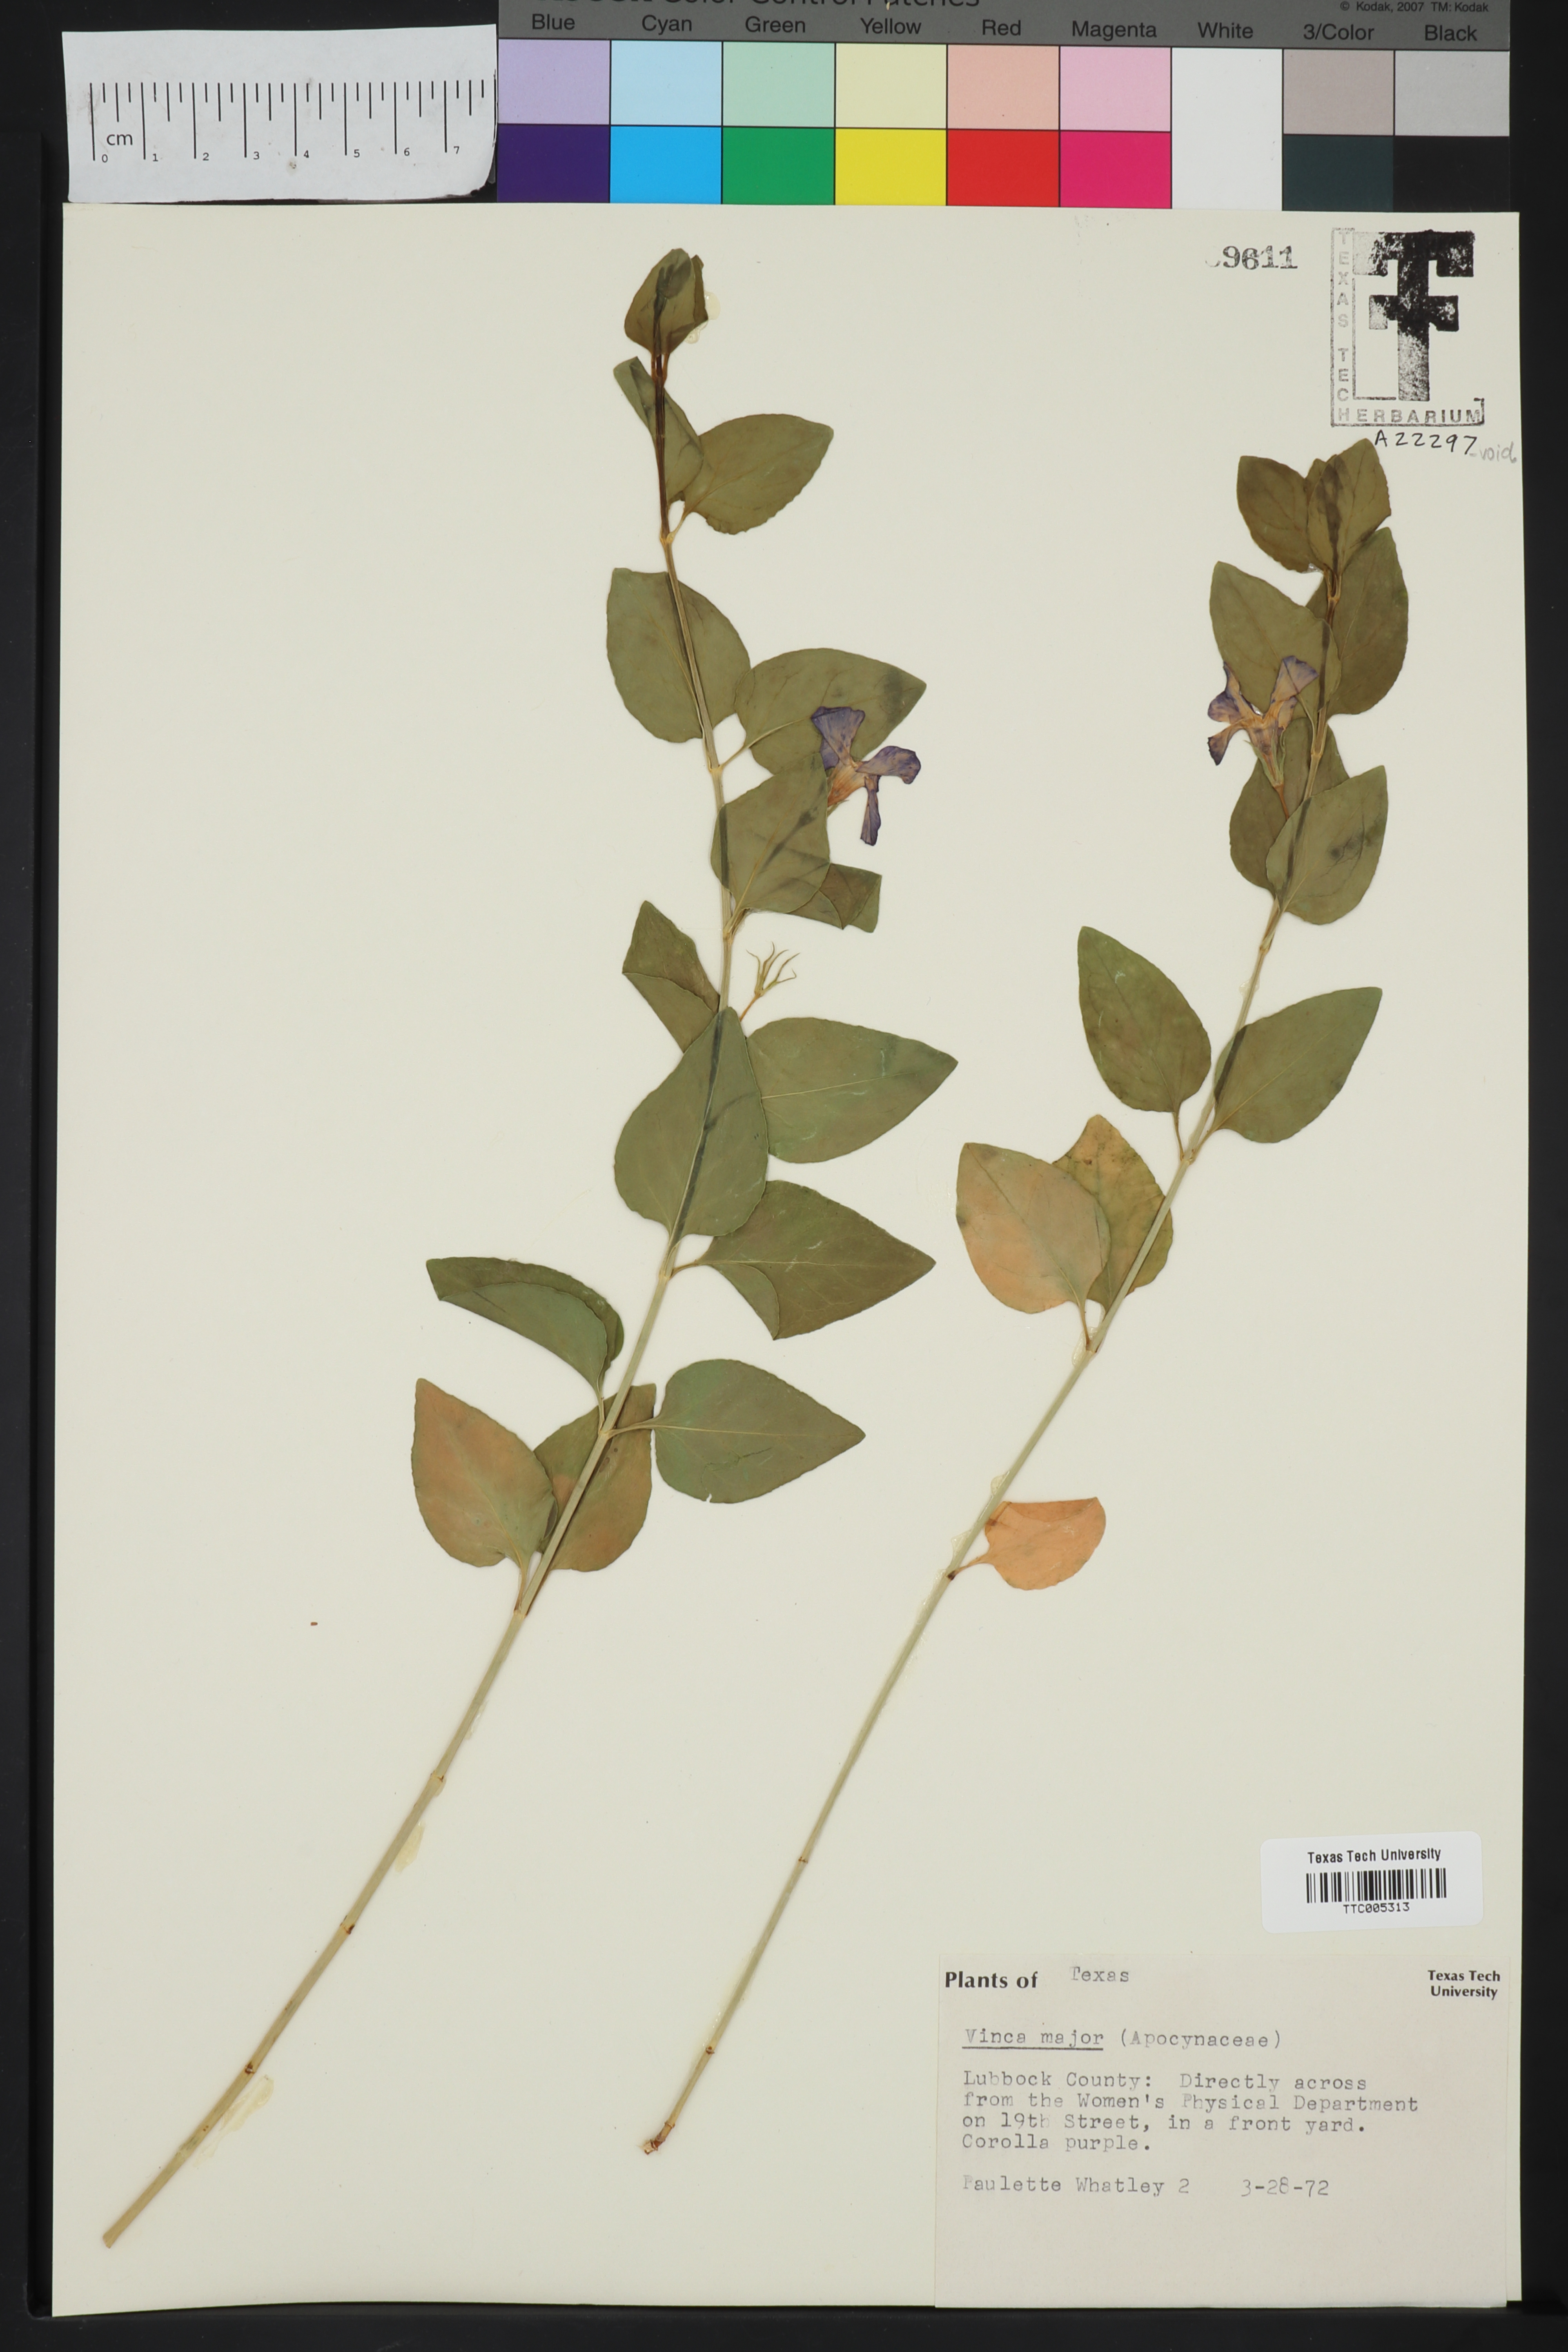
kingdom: Plantae
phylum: Tracheophyta
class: Magnoliopsida
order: Gentianales
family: Apocynaceae
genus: Vinca
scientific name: Vinca major
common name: Greater periwinkle
